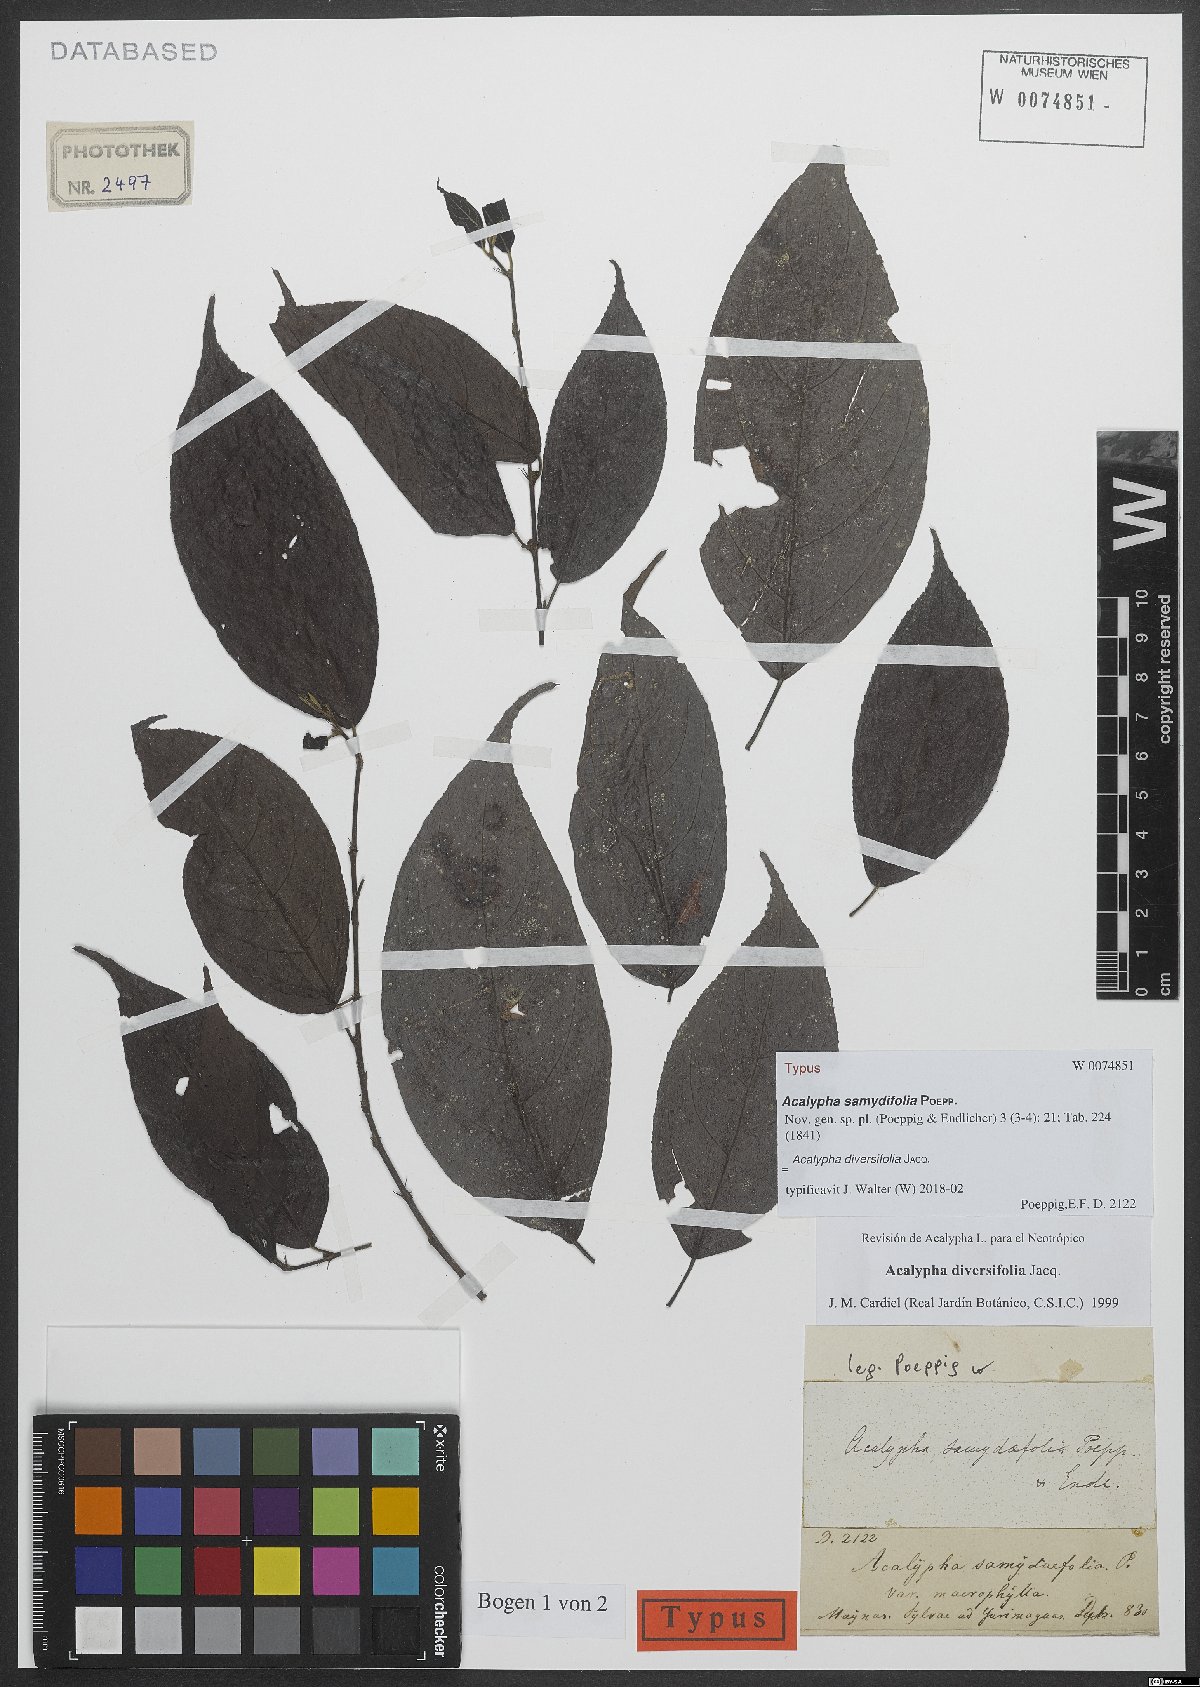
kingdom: Plantae
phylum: Tracheophyta
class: Magnoliopsida
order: Malpighiales
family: Euphorbiaceae
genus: Acalypha
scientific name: Acalypha diversifolia
